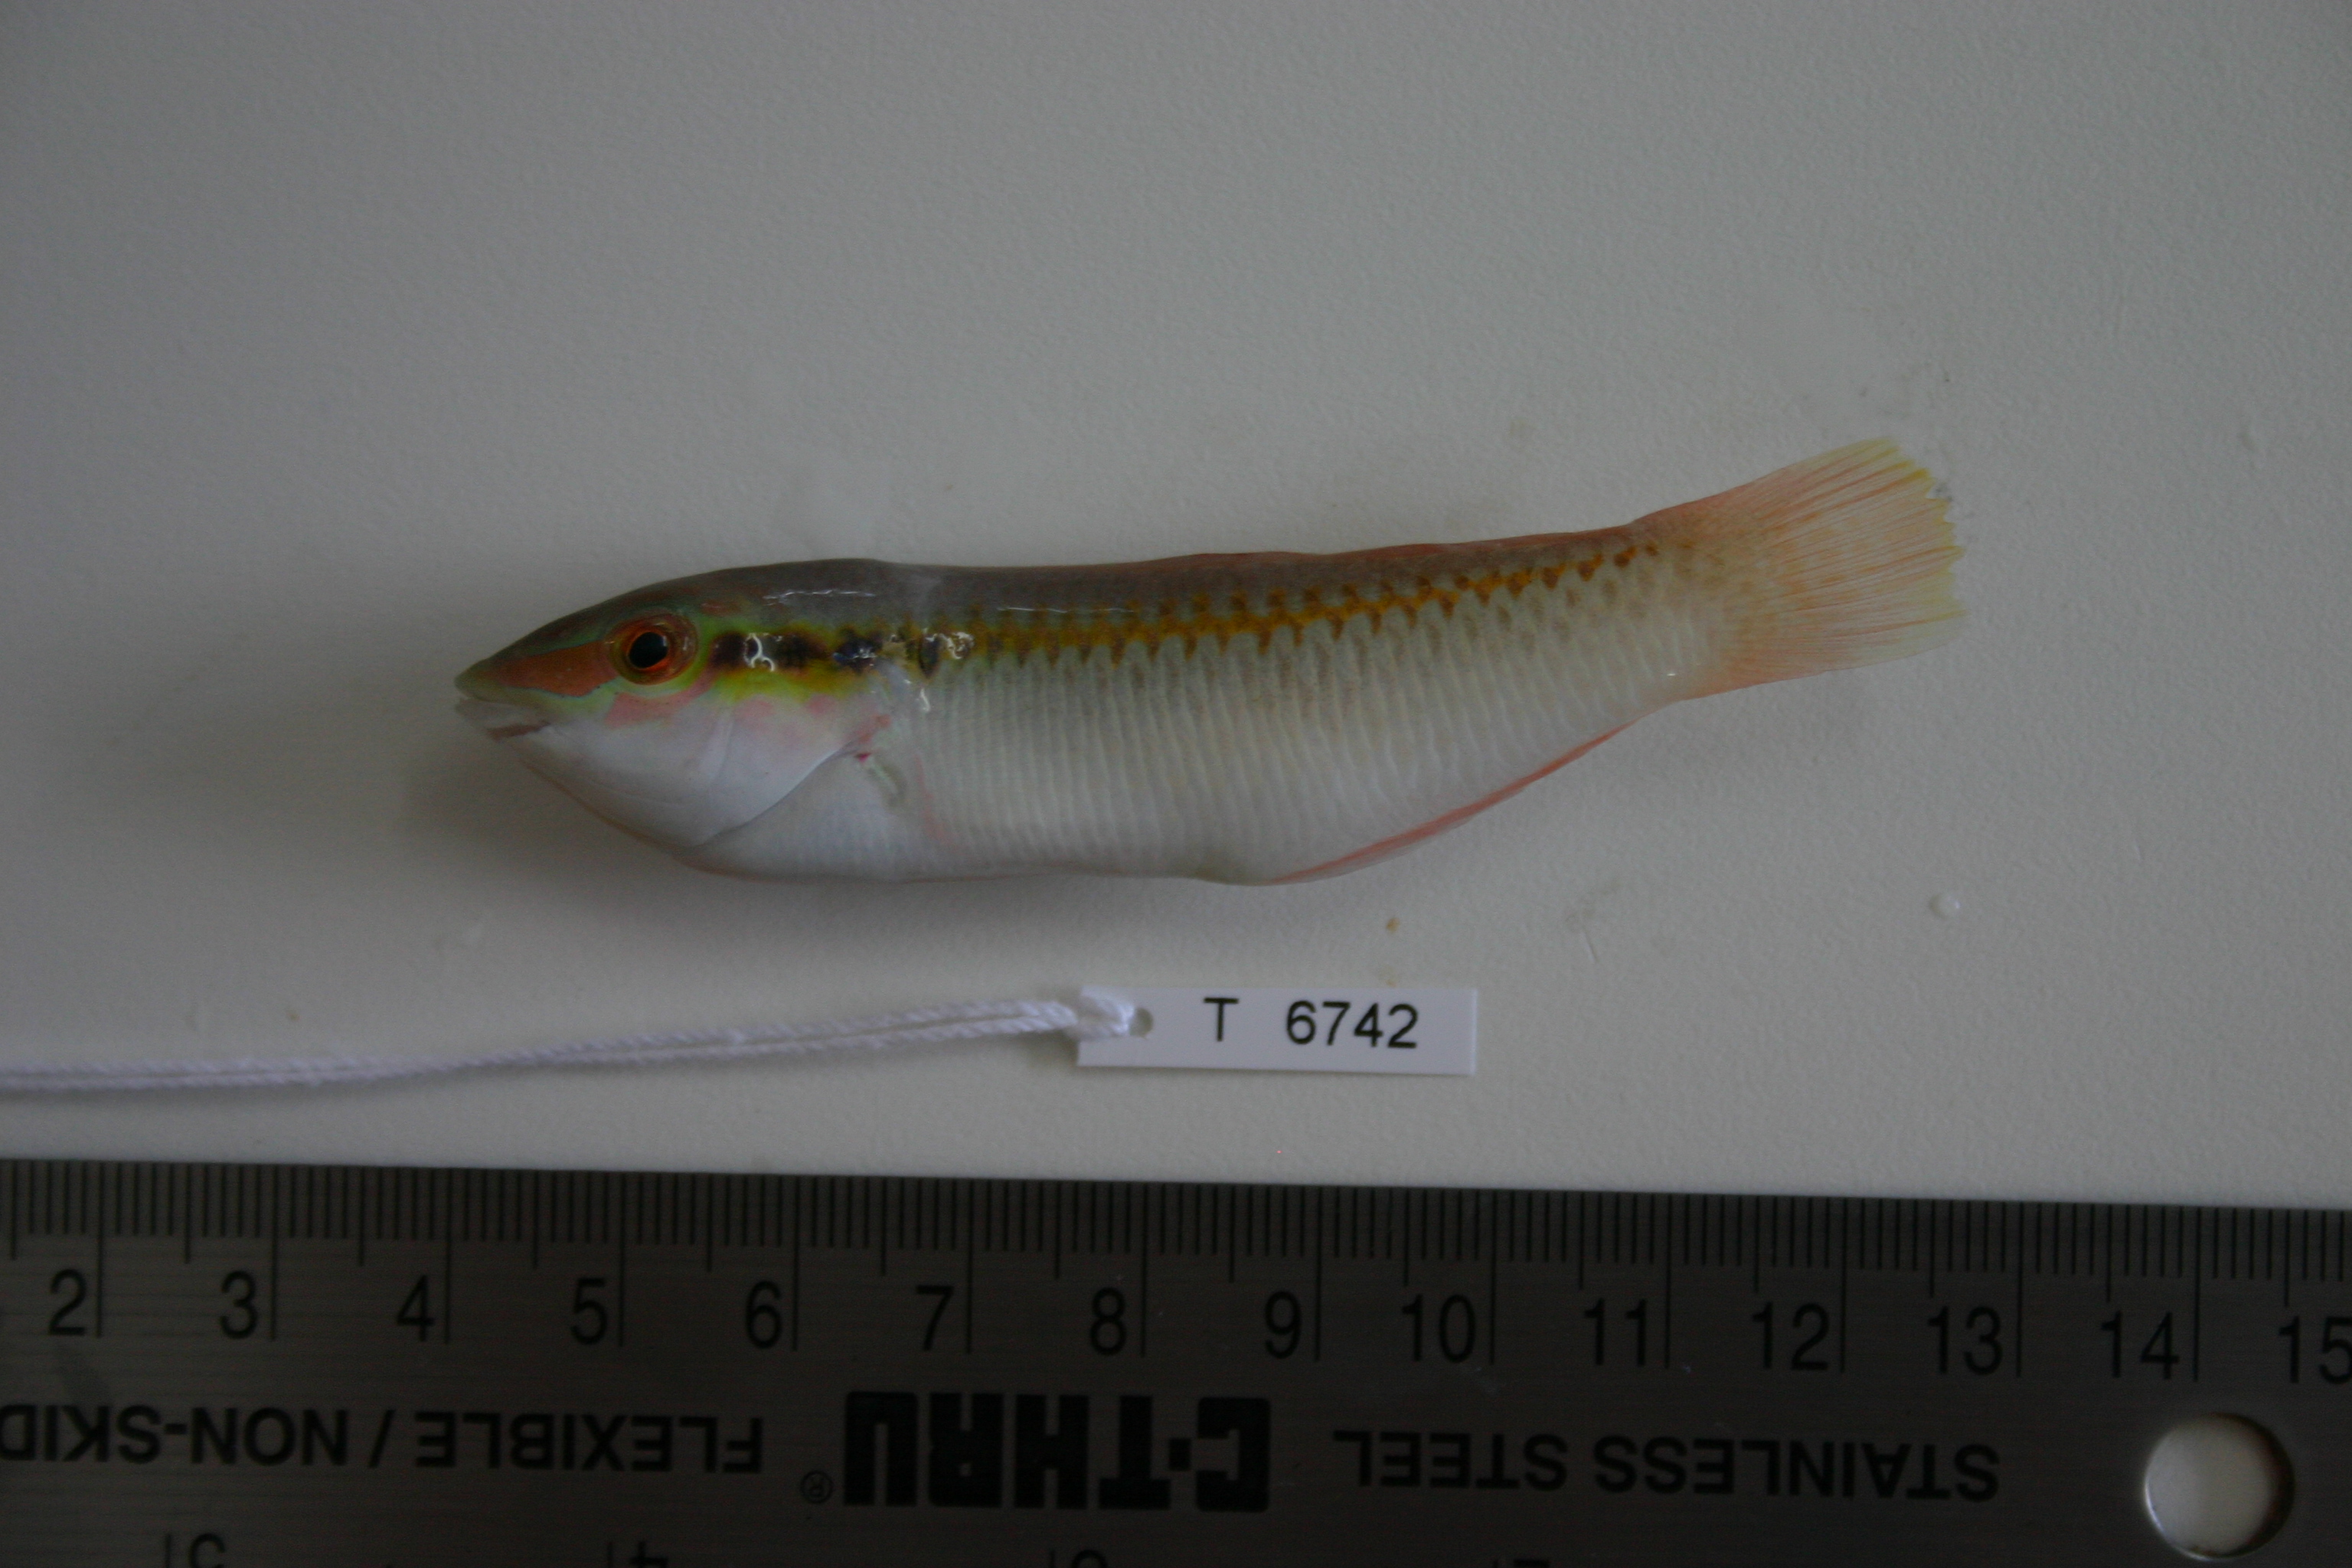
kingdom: Animalia
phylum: Chordata
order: Perciformes
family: Labridae
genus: Halichoeres
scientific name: Halichoeres scapularis
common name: Brownbanded wrasse
